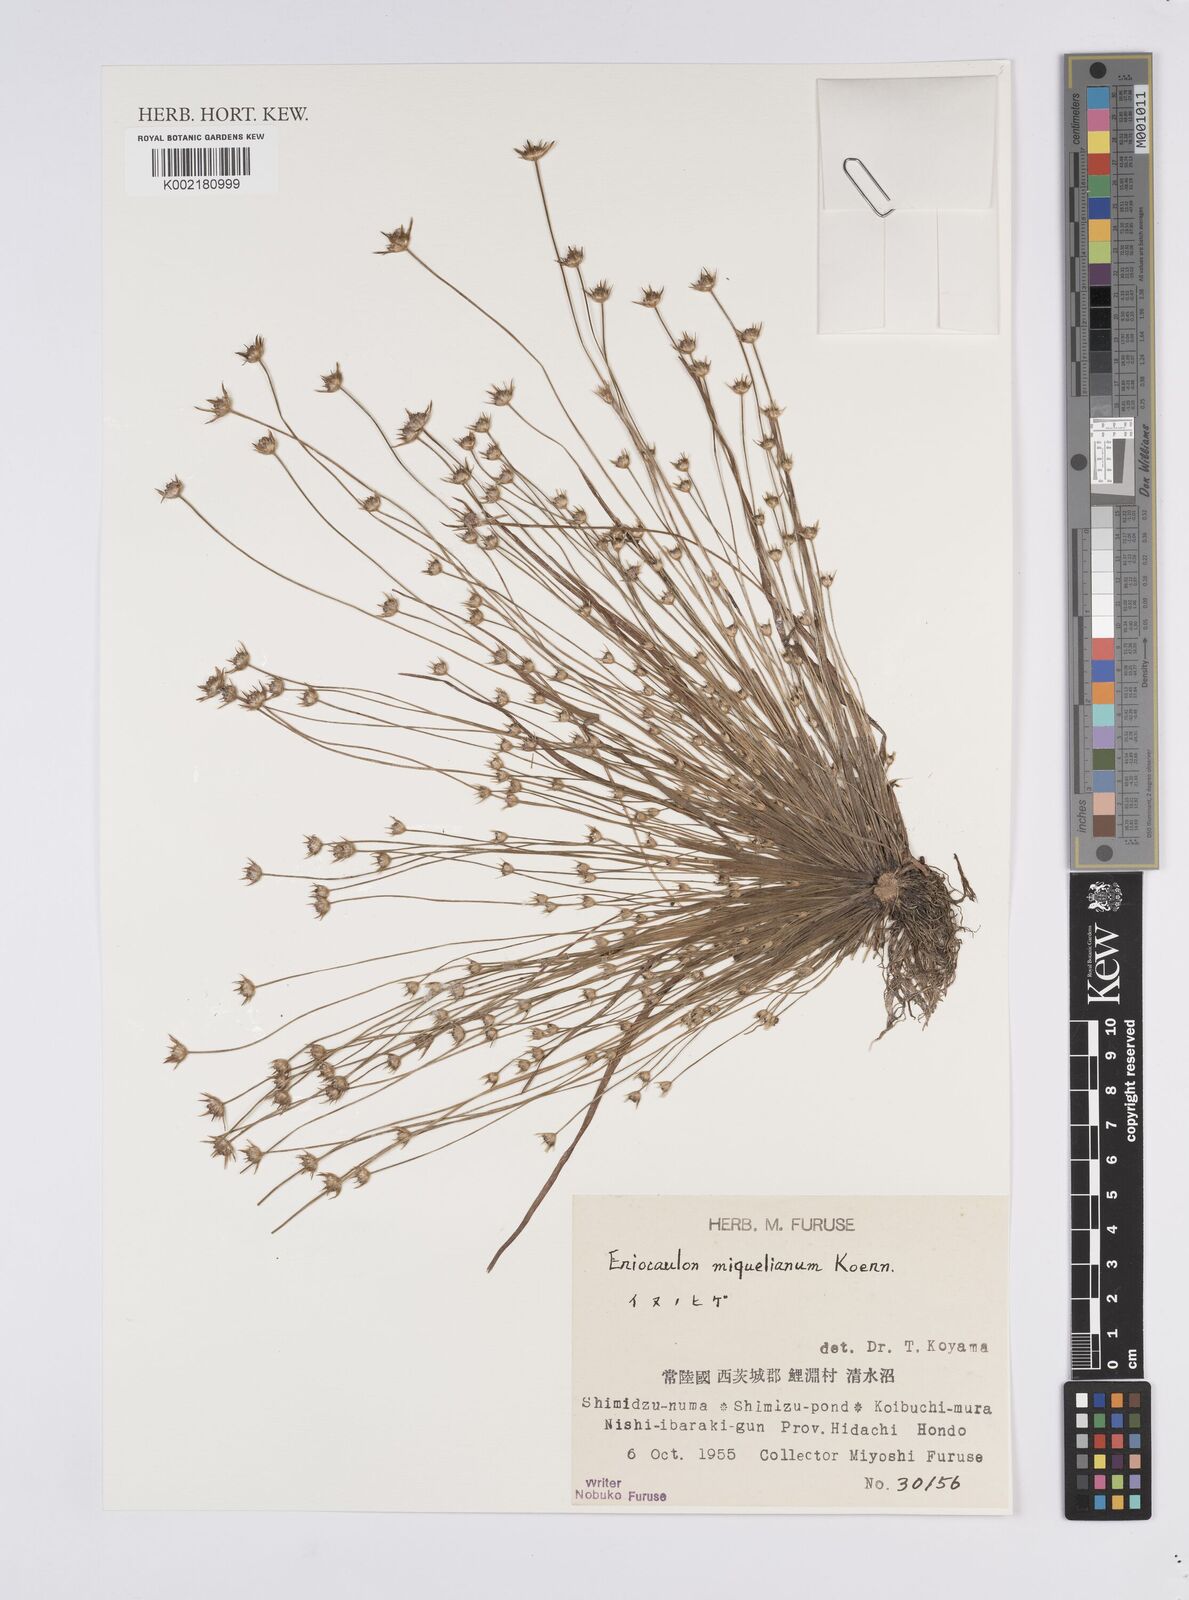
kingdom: Plantae
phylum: Tracheophyta
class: Liliopsida
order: Poales
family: Eriocaulaceae
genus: Eriocaulon
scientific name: Eriocaulon miquelianum
